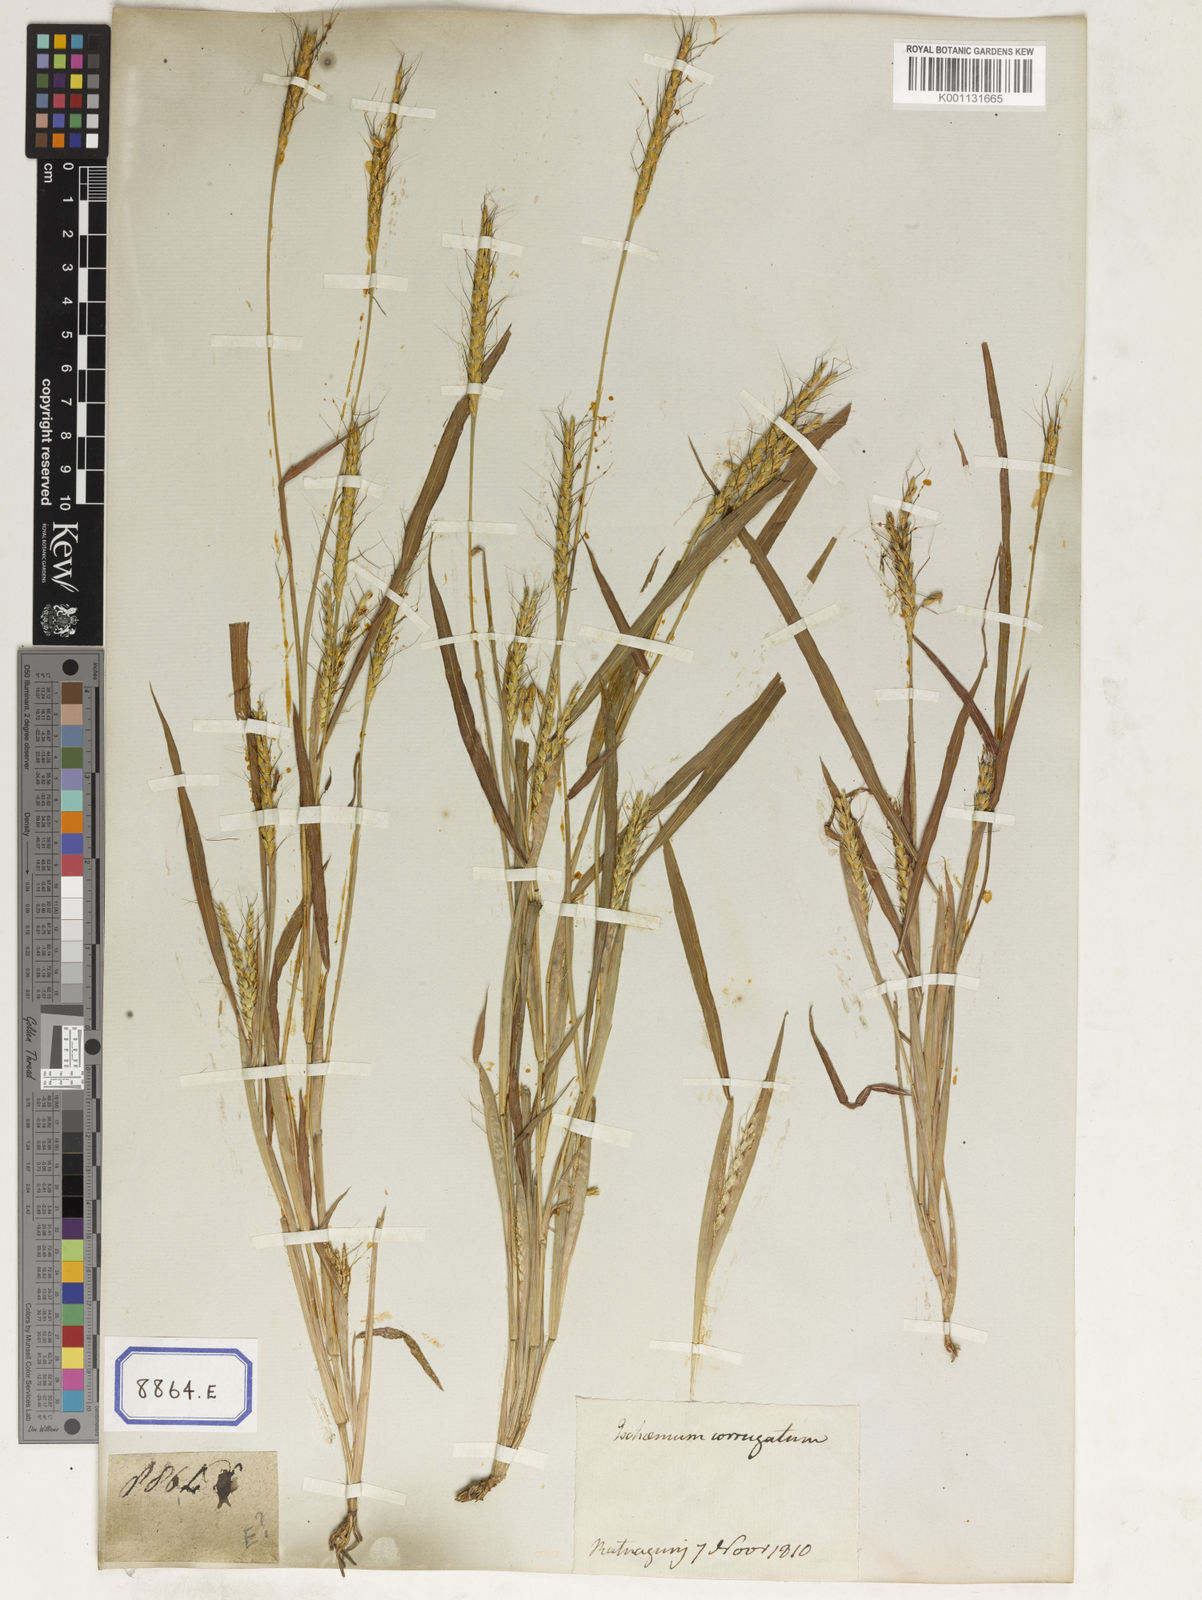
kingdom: Plantae
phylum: Tracheophyta
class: Liliopsida
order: Poales
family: Poaceae
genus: Ischaemum
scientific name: Ischaemum rugosum
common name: Saramatta grass
